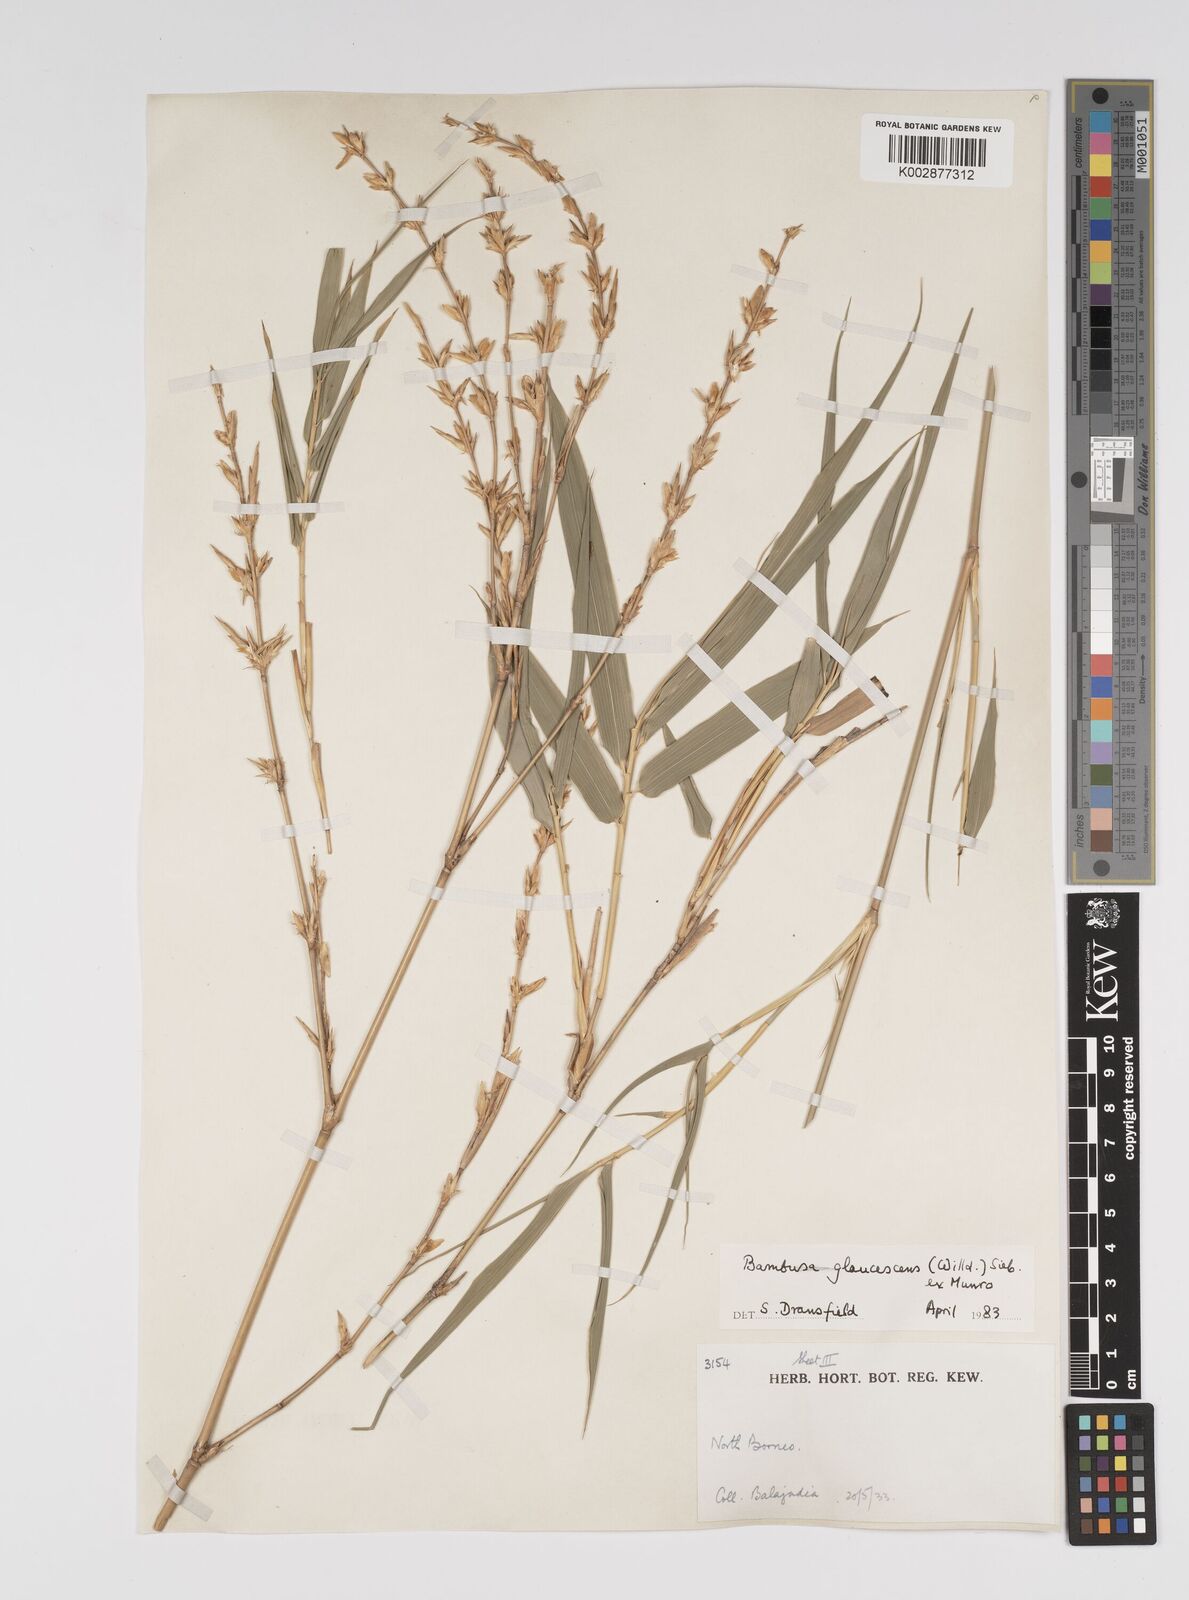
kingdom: Plantae
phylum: Tracheophyta
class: Liliopsida
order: Poales
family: Poaceae
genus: Bambusa
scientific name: Bambusa multiplex
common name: Hedge bamboo
